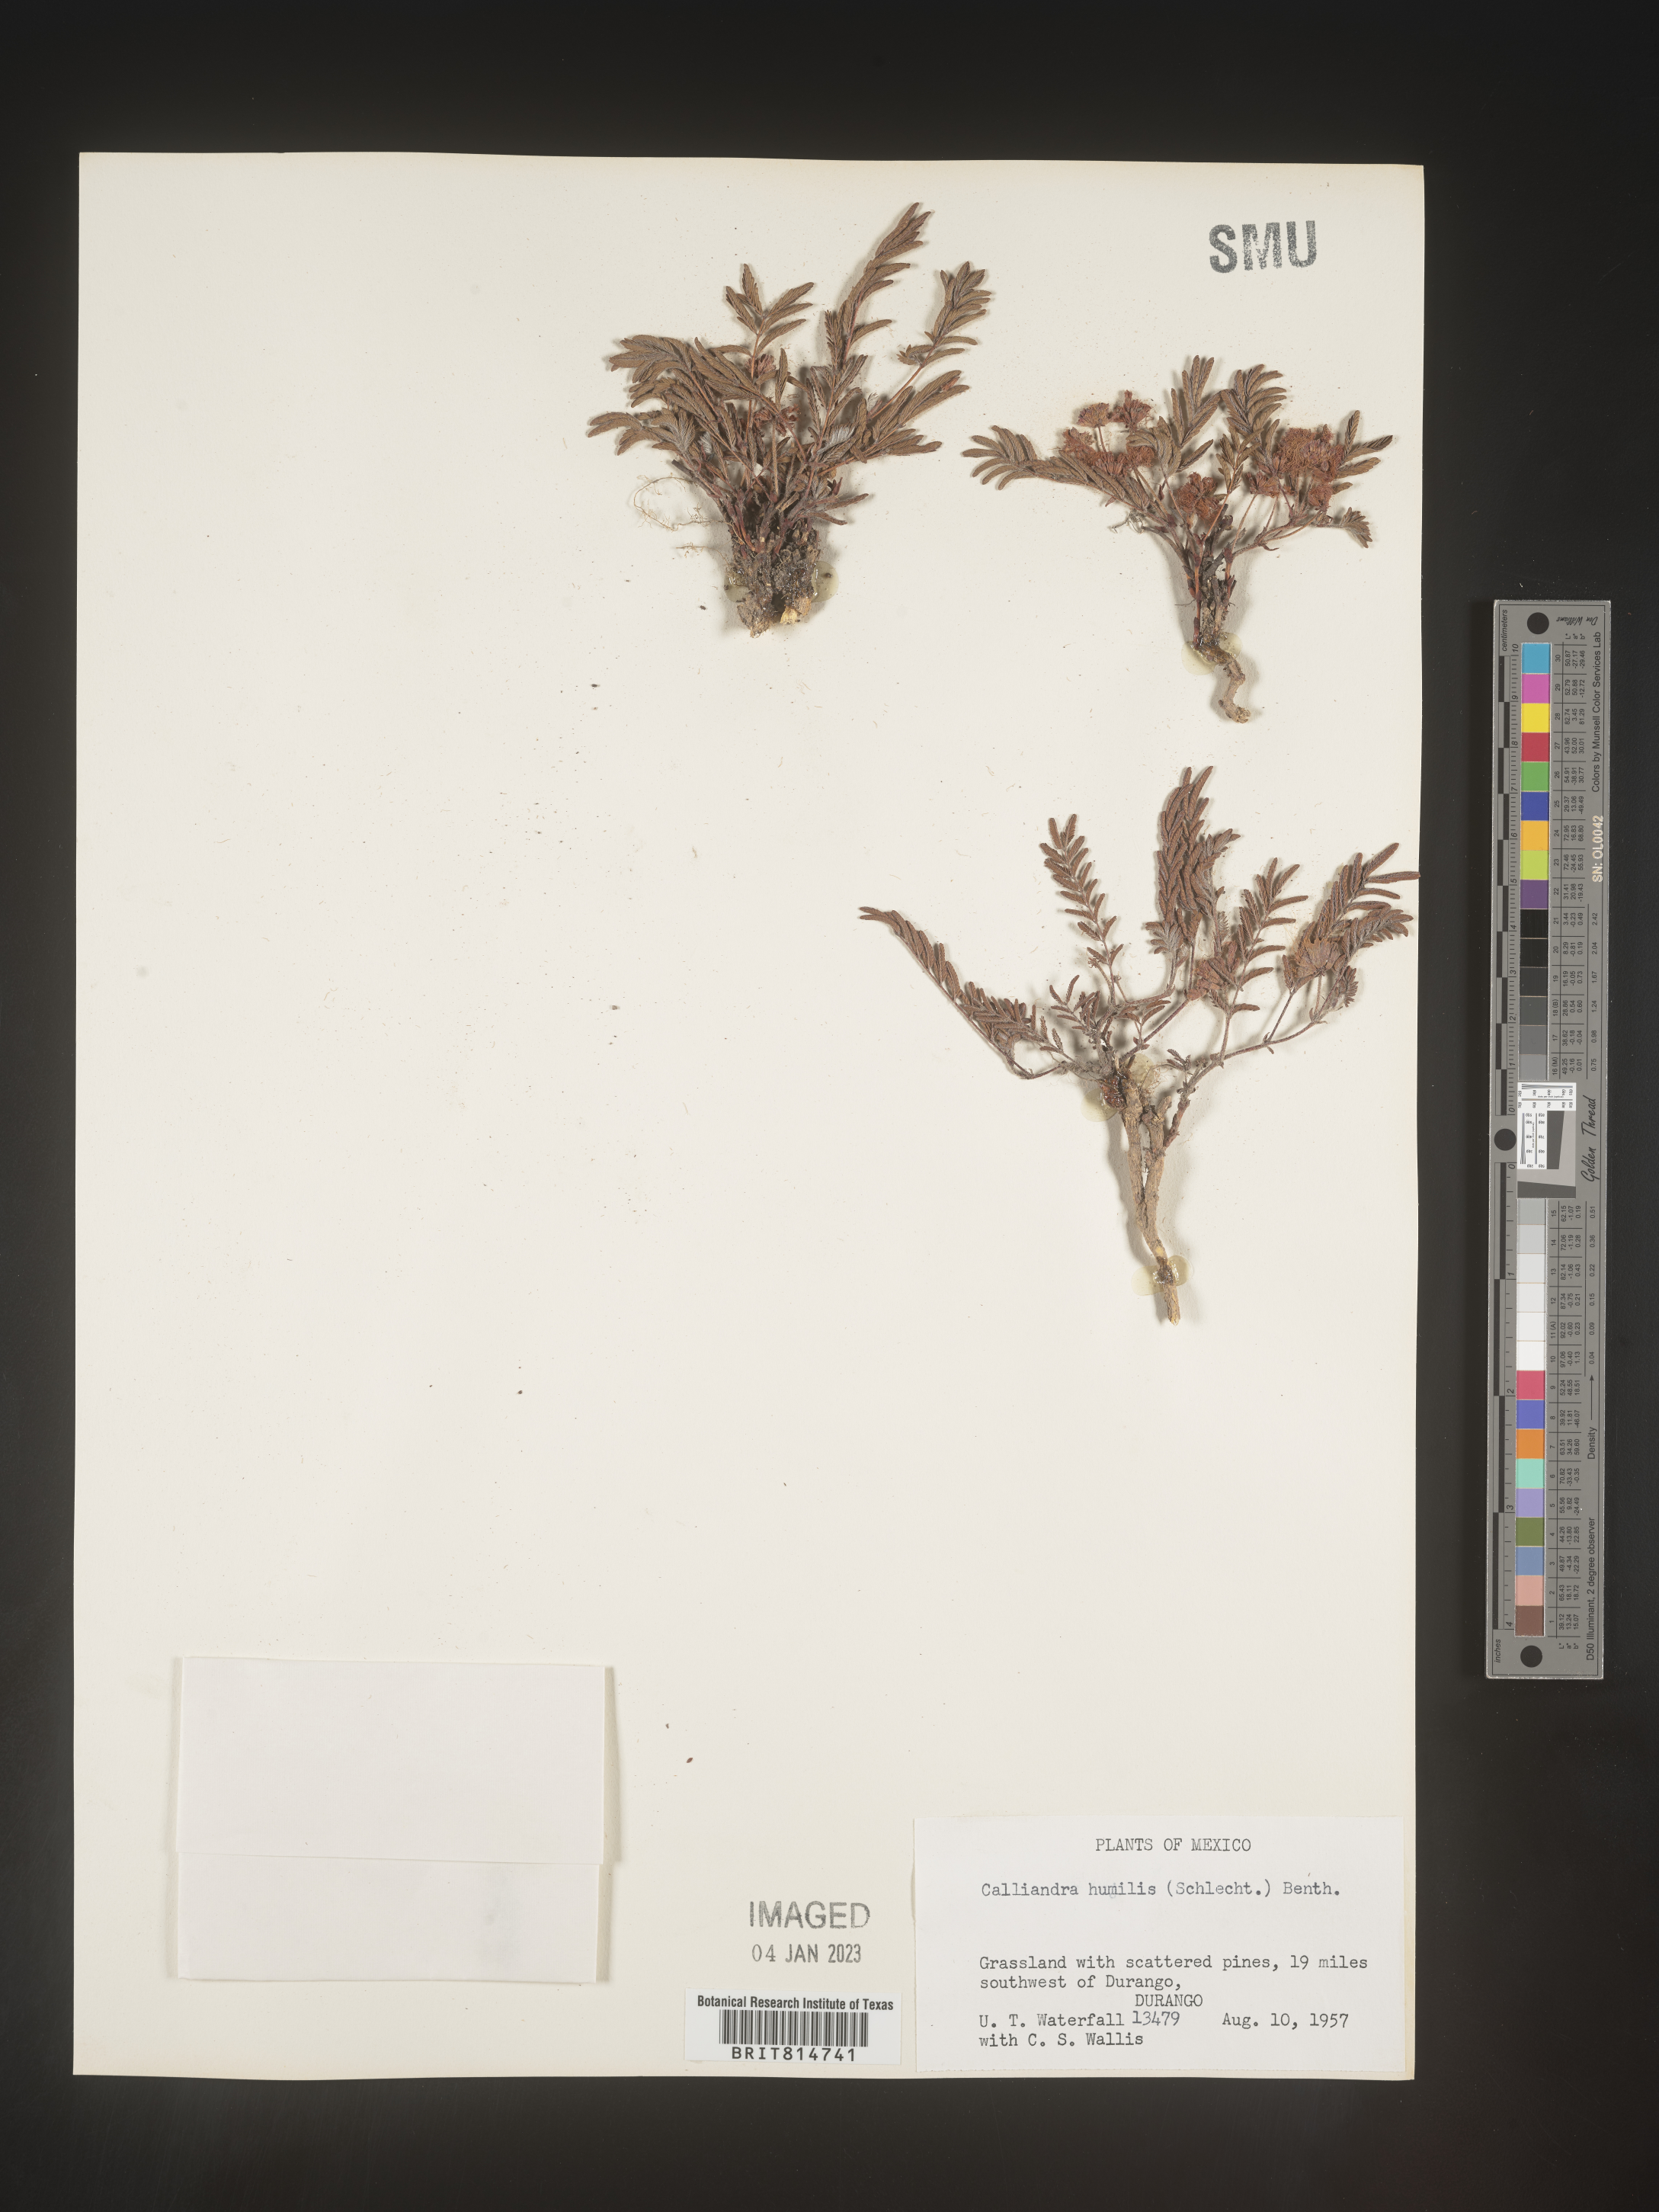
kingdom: Plantae
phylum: Tracheophyta
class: Magnoliopsida
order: Fabales
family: Fabaceae
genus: Calliandra
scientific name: Calliandra
